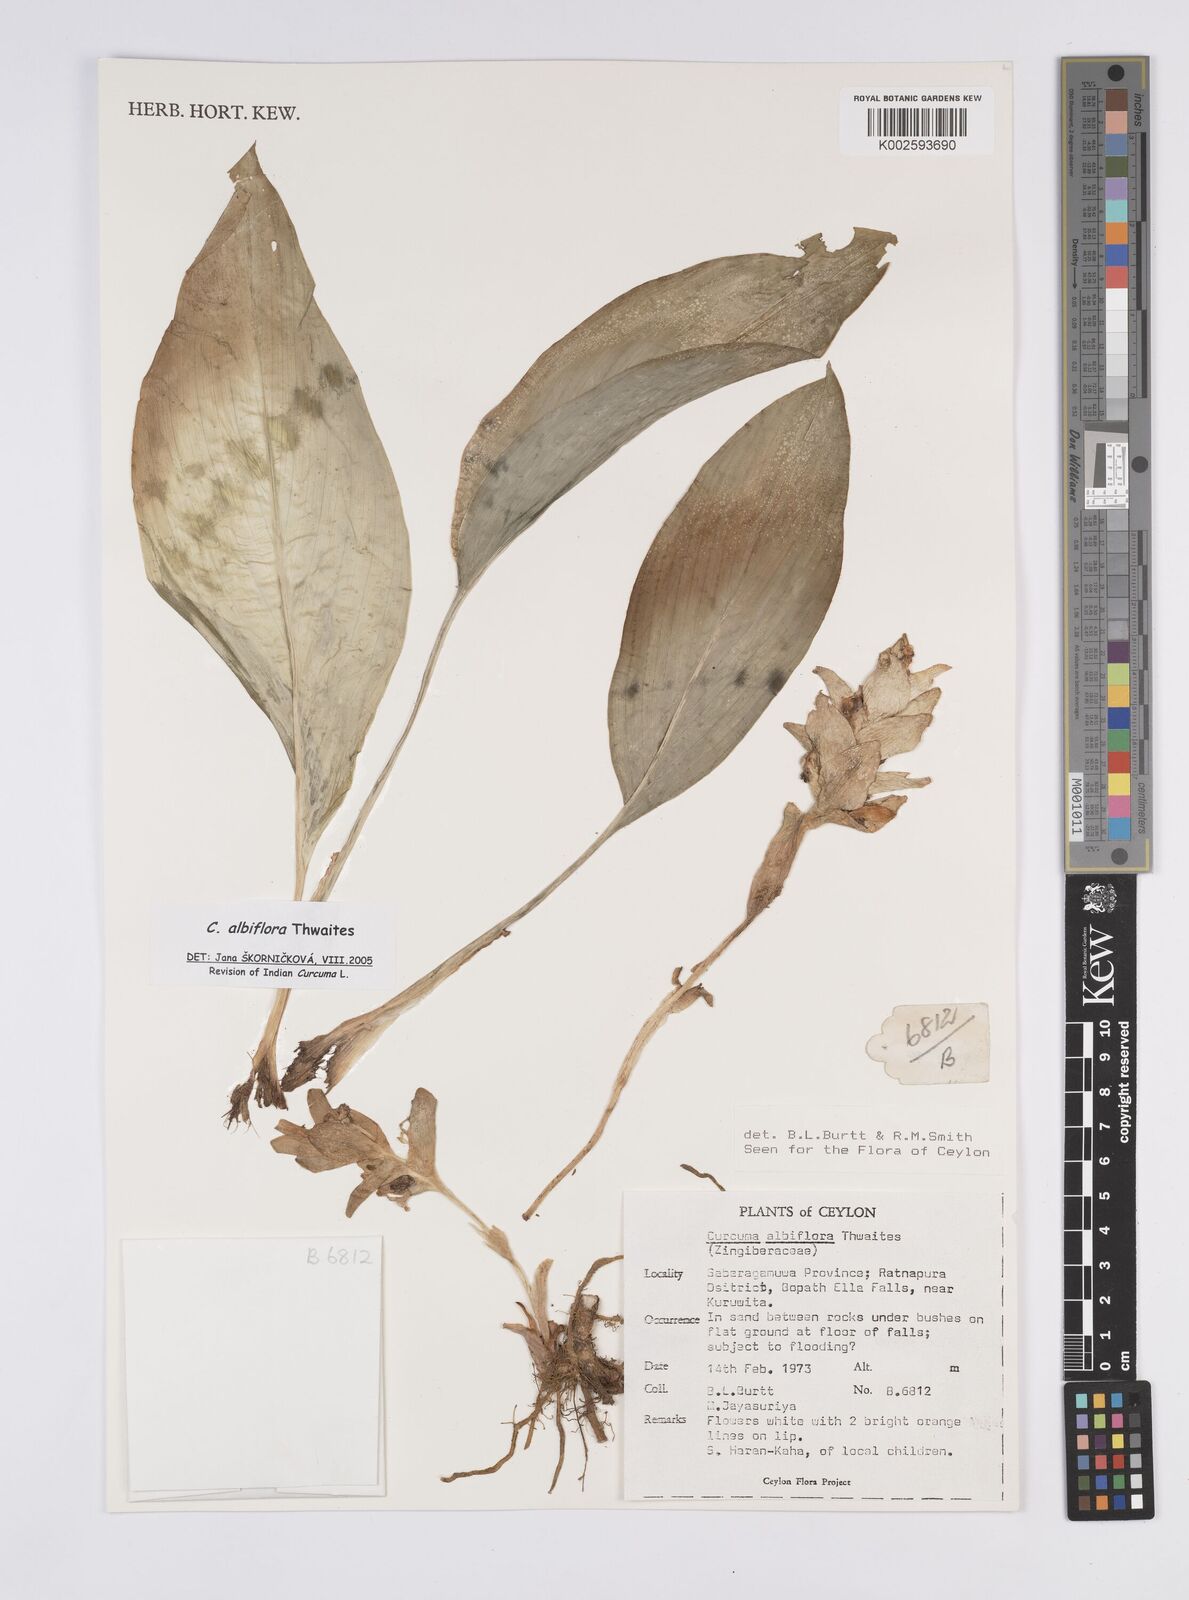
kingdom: Plantae
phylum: Tracheophyta
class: Liliopsida
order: Zingiberales
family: Zingiberaceae
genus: Curcuma
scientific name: Curcuma albiflora
